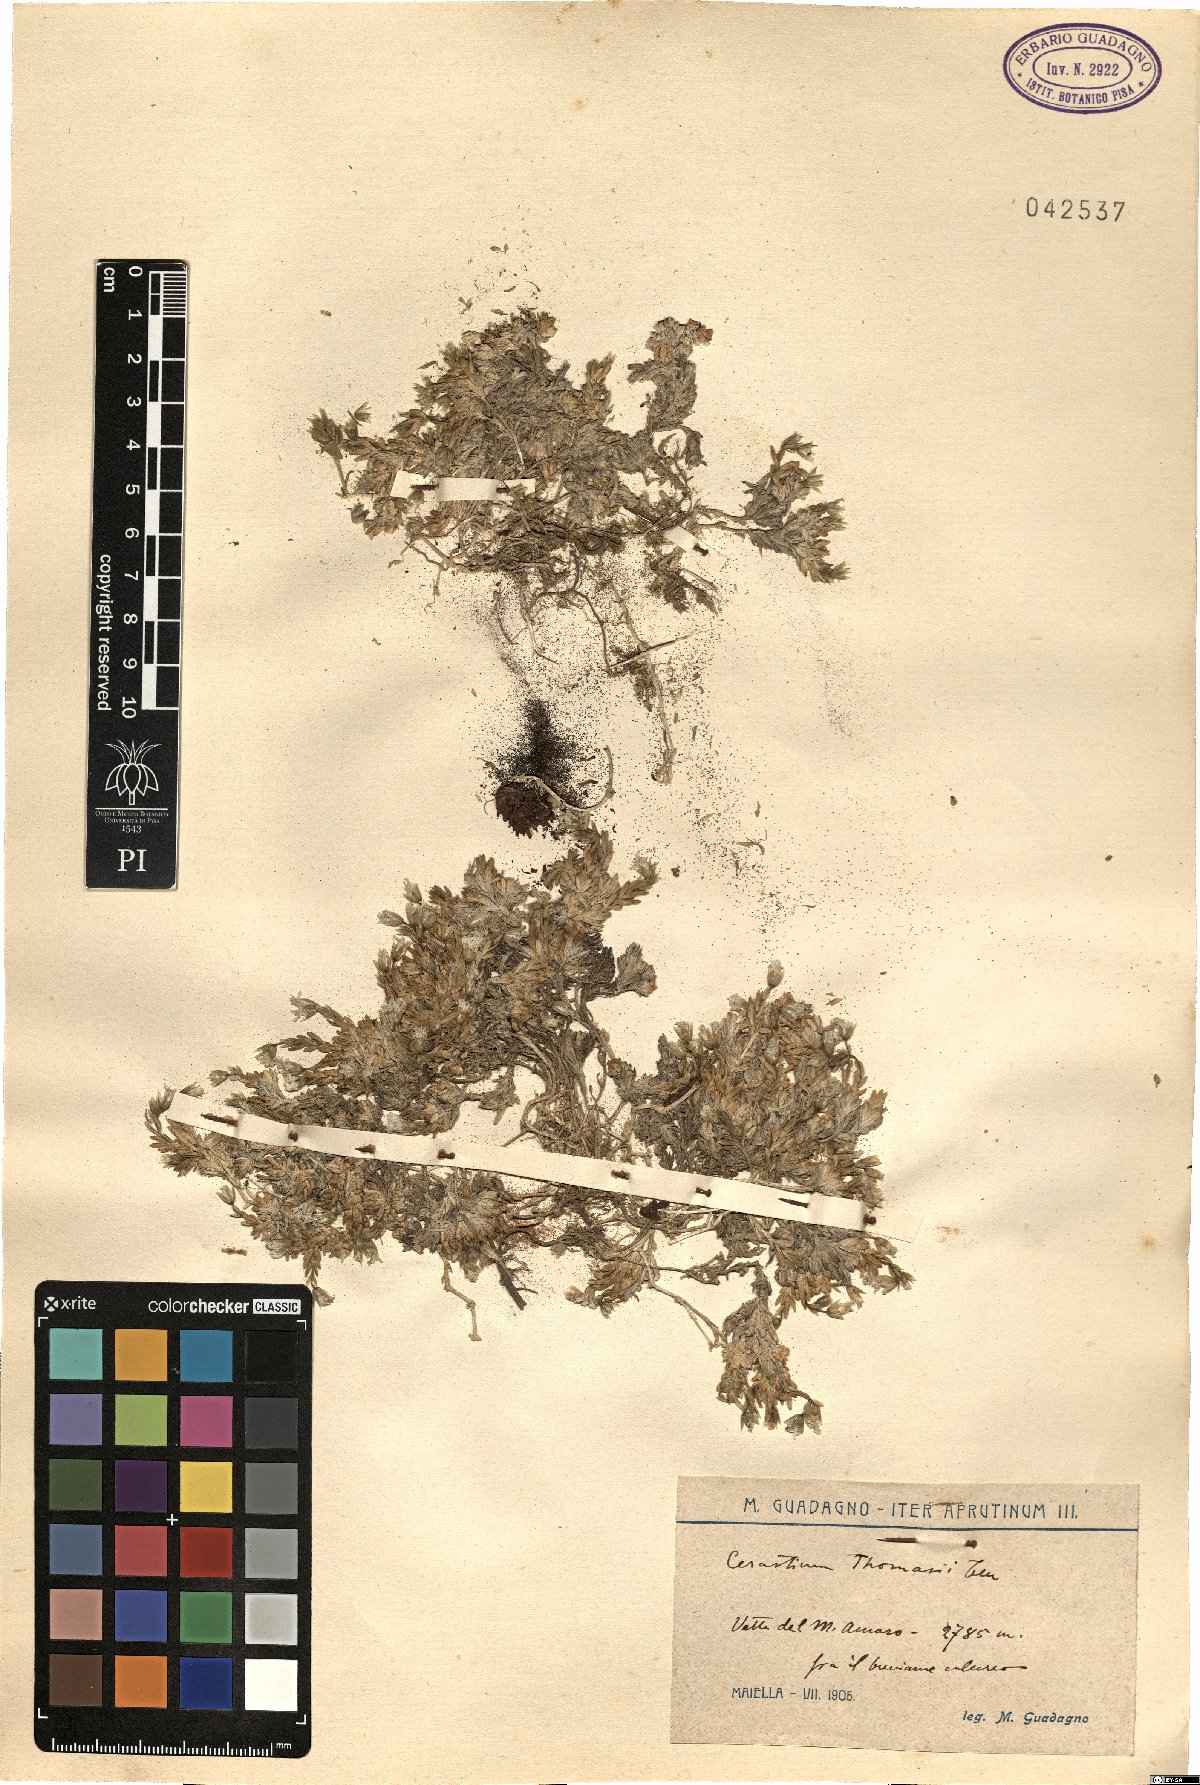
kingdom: Plantae
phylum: Tracheophyta
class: Magnoliopsida
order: Caryophyllales
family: Caryophyllaceae
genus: Cerastium
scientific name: Cerastium thomasii
